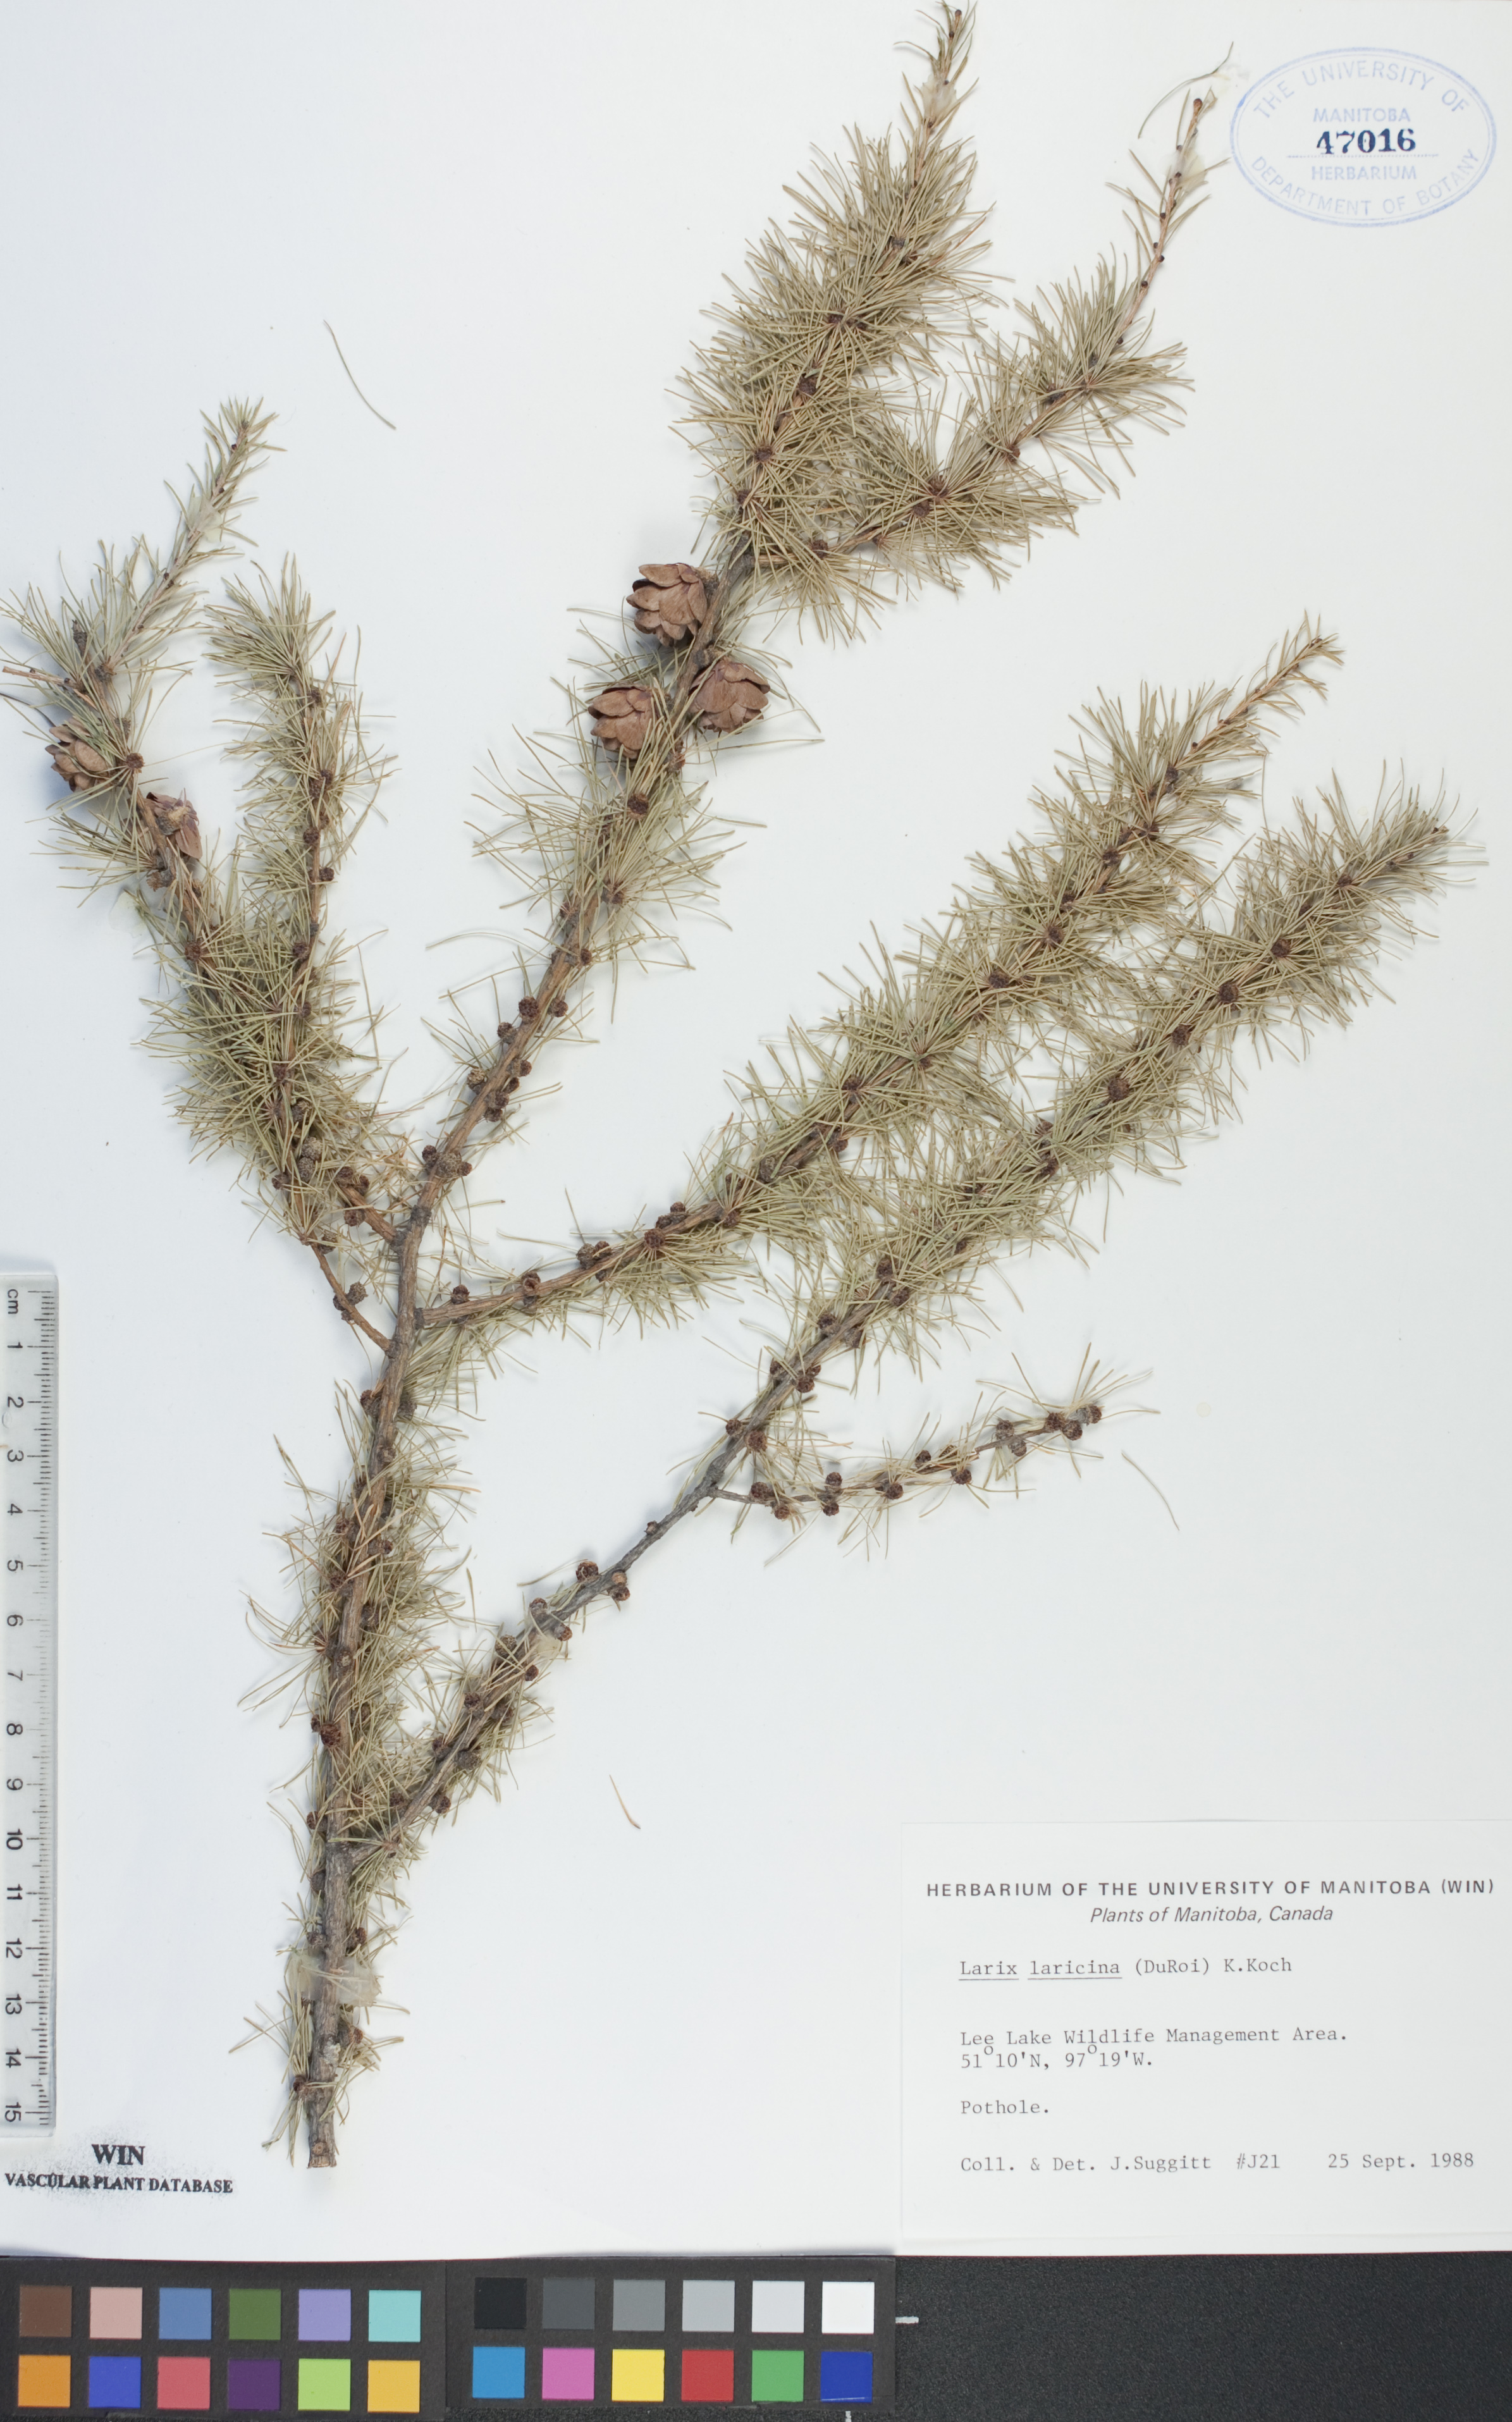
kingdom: Plantae
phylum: Tracheophyta
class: Pinopsida
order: Pinales
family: Pinaceae
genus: Larix
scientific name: Larix laricina
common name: American larch
